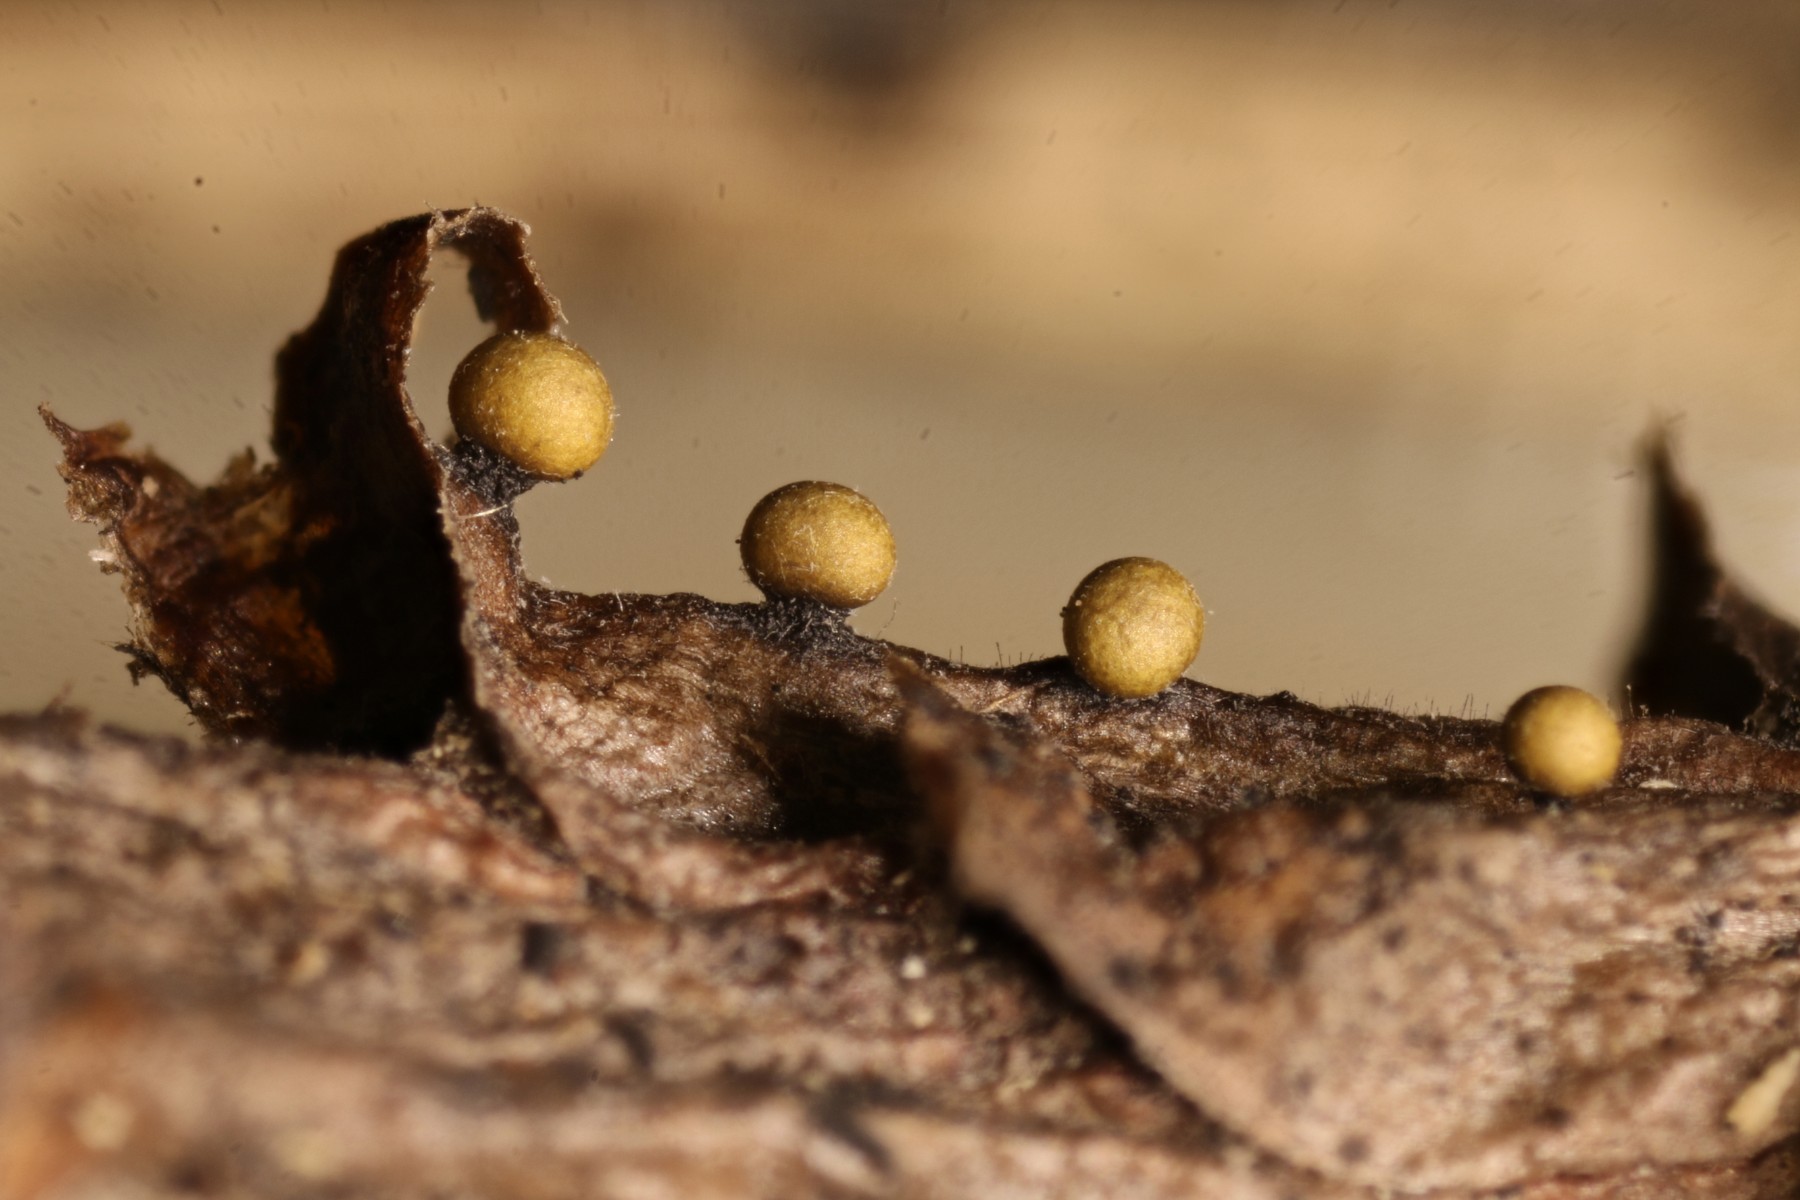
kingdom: Protozoa
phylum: Mycetozoa
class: Myxomycetes
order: Trichiales
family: Arcyriaceae
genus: Hemitrichia
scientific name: Hemitrichia leiotricha
